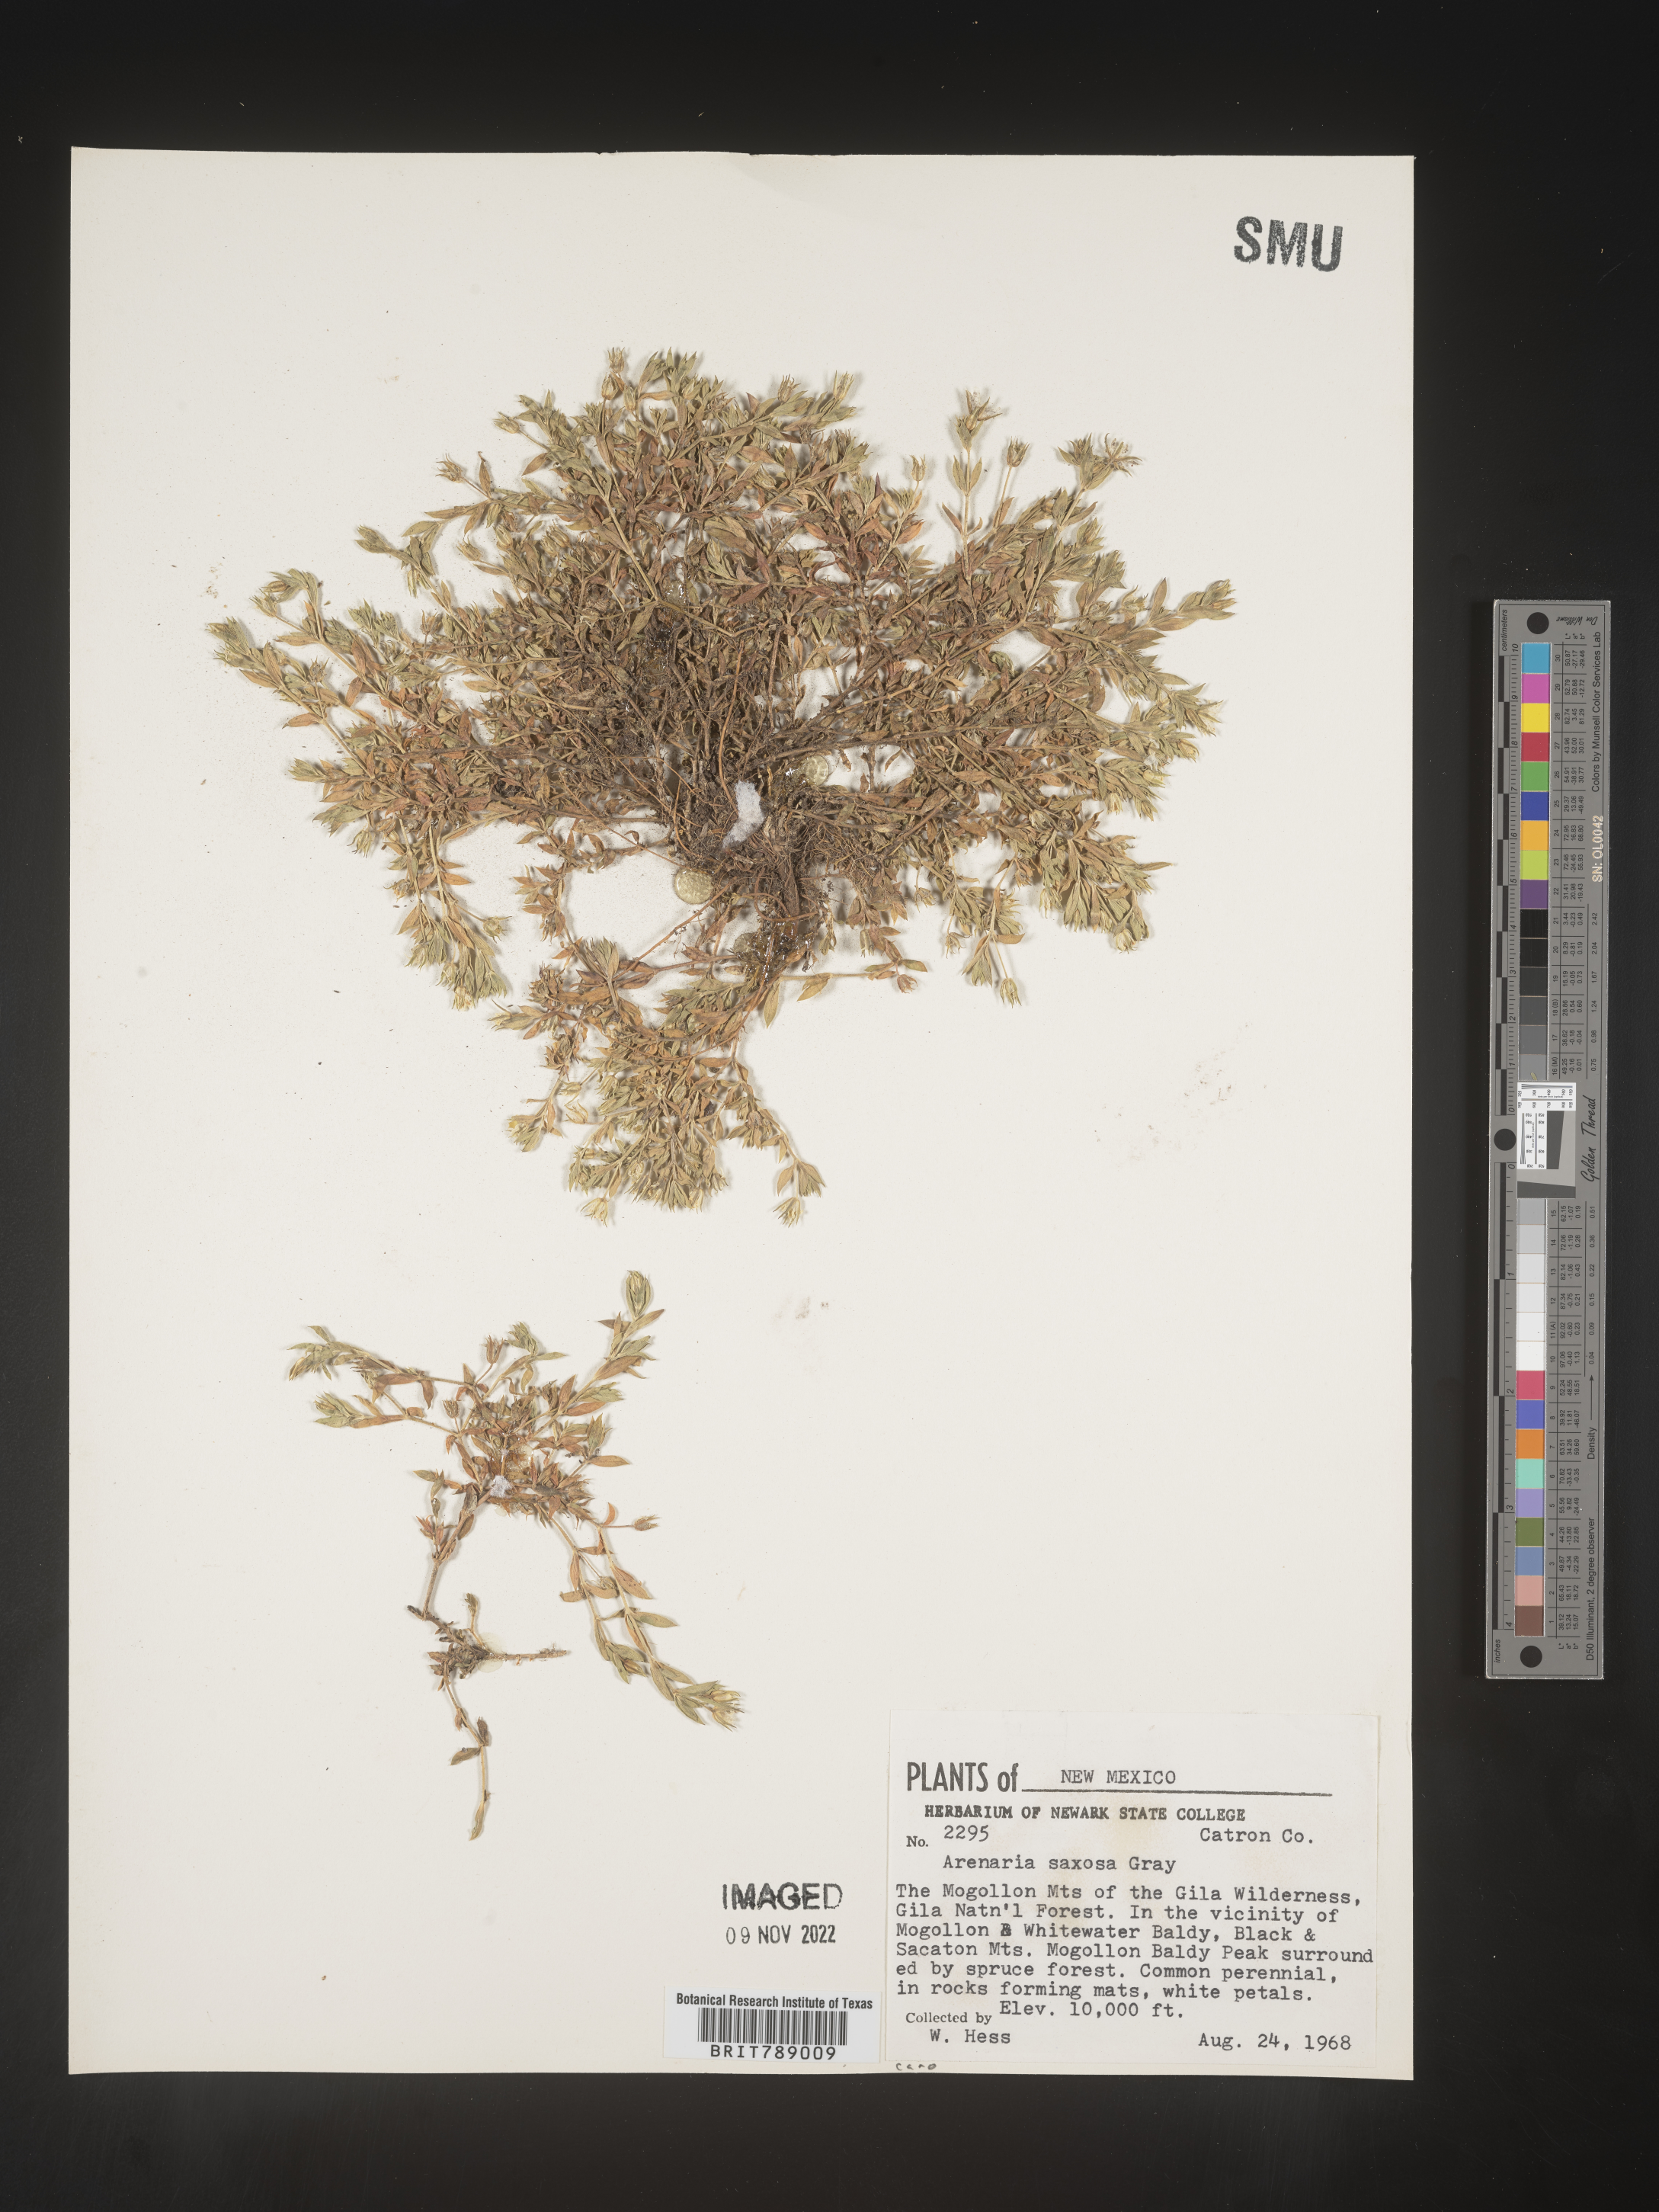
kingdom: Plantae
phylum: Tracheophyta
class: Magnoliopsida
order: Caryophyllales
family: Caryophyllaceae
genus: Arenaria
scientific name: Arenaria
